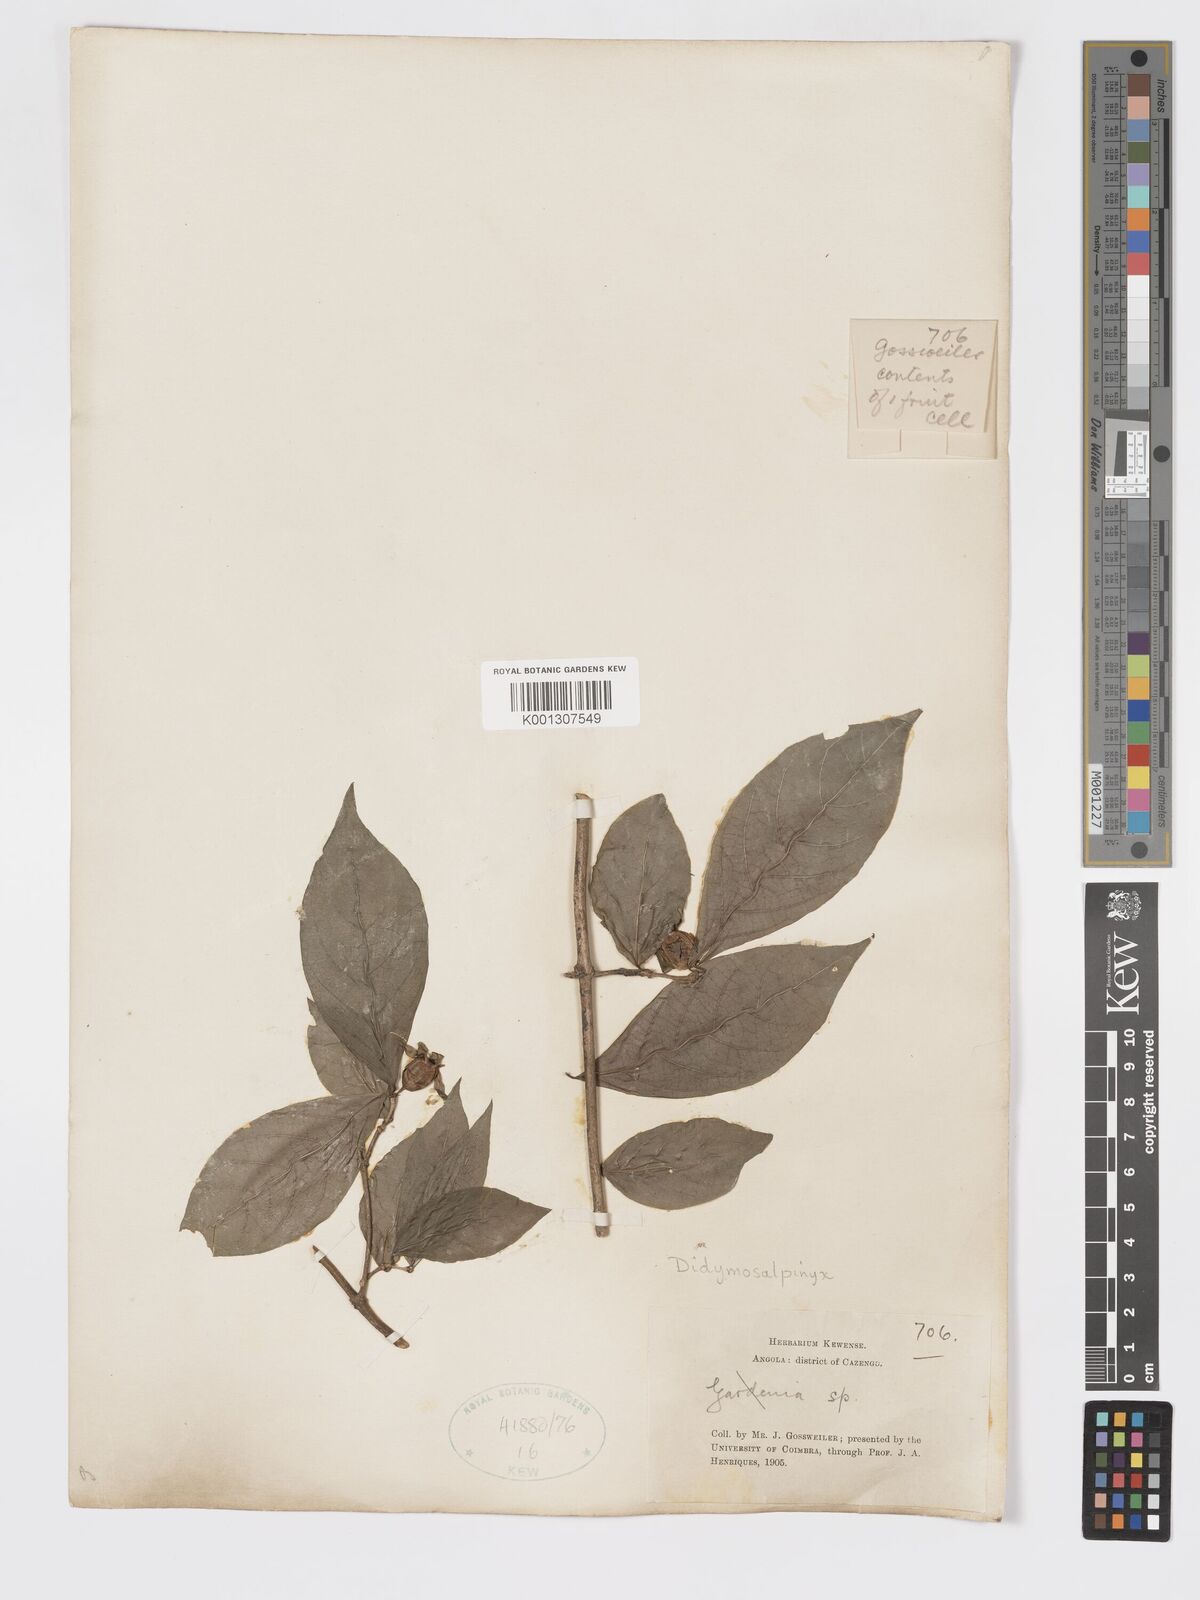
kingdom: Plantae
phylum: Tracheophyta
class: Magnoliopsida
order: Gentianales
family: Rubiaceae
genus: Didymosalpinx
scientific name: Didymosalpinx lanciloba
